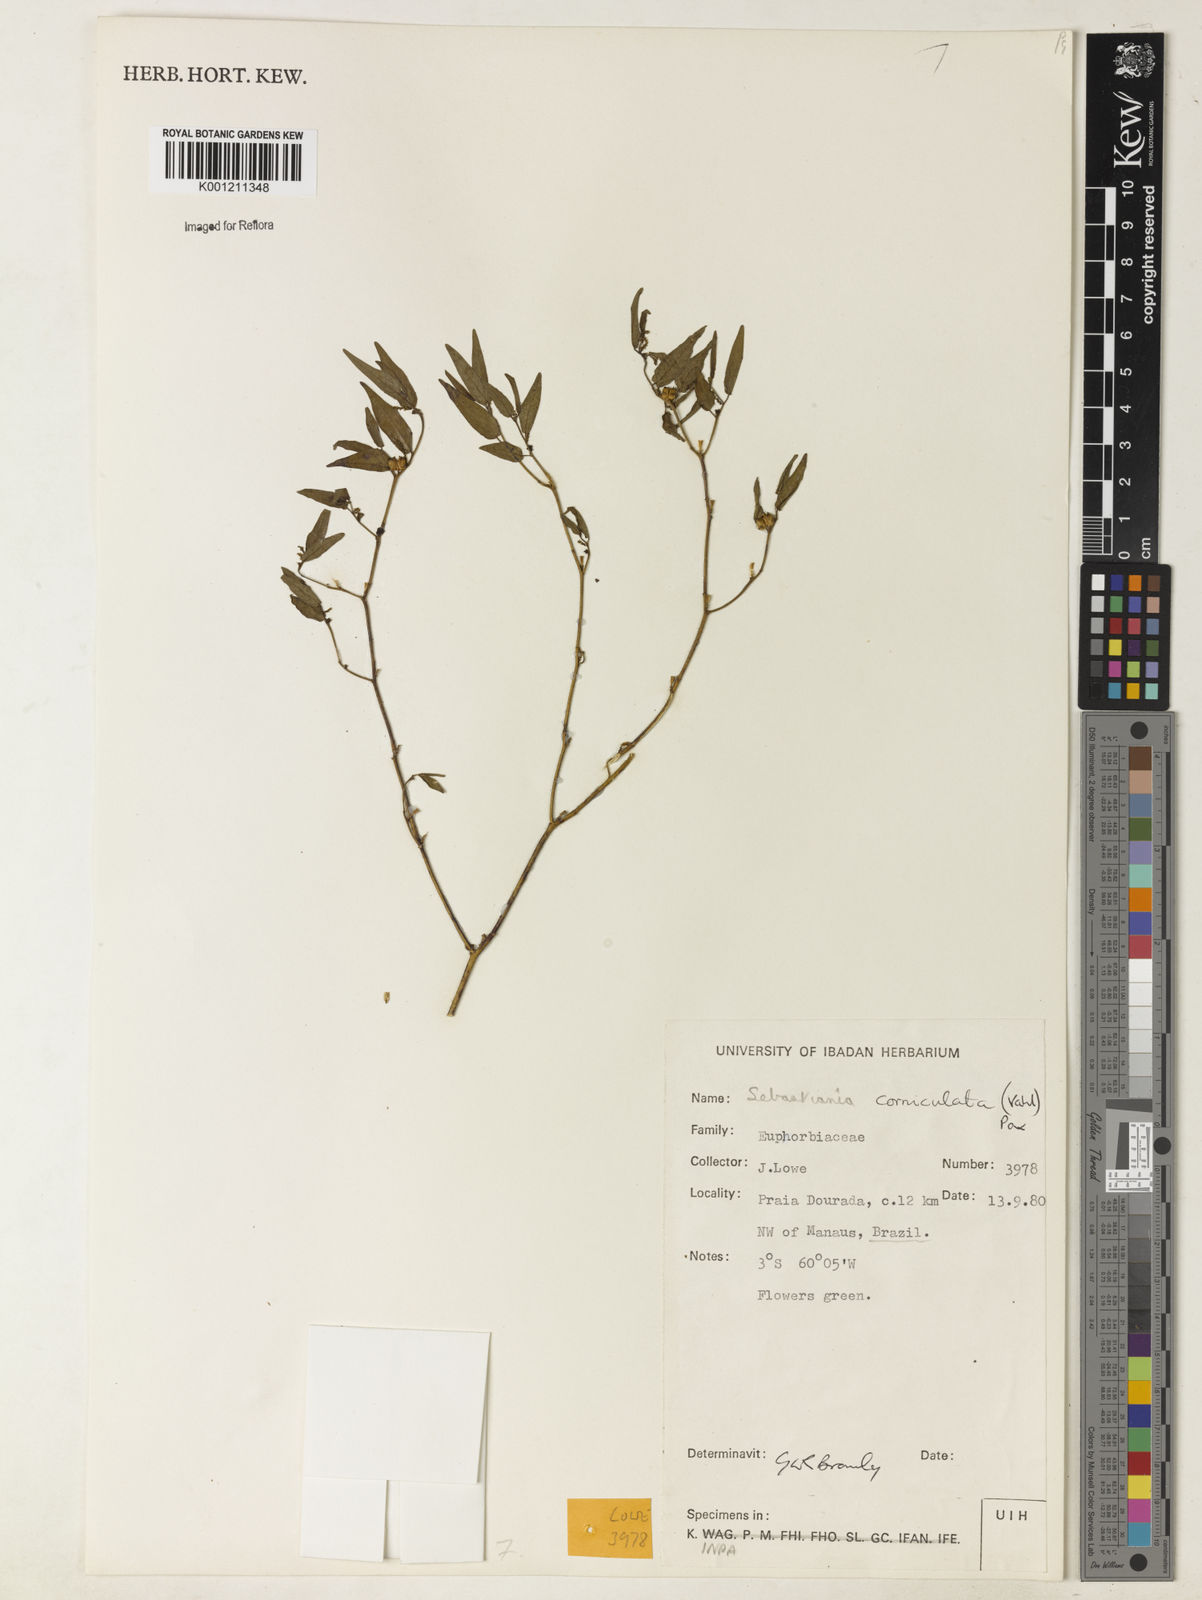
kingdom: Plantae
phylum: Tracheophyta
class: Magnoliopsida
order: Malpighiales
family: Euphorbiaceae
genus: Microstachys
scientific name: Microstachys corniculata
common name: Hato tejas
